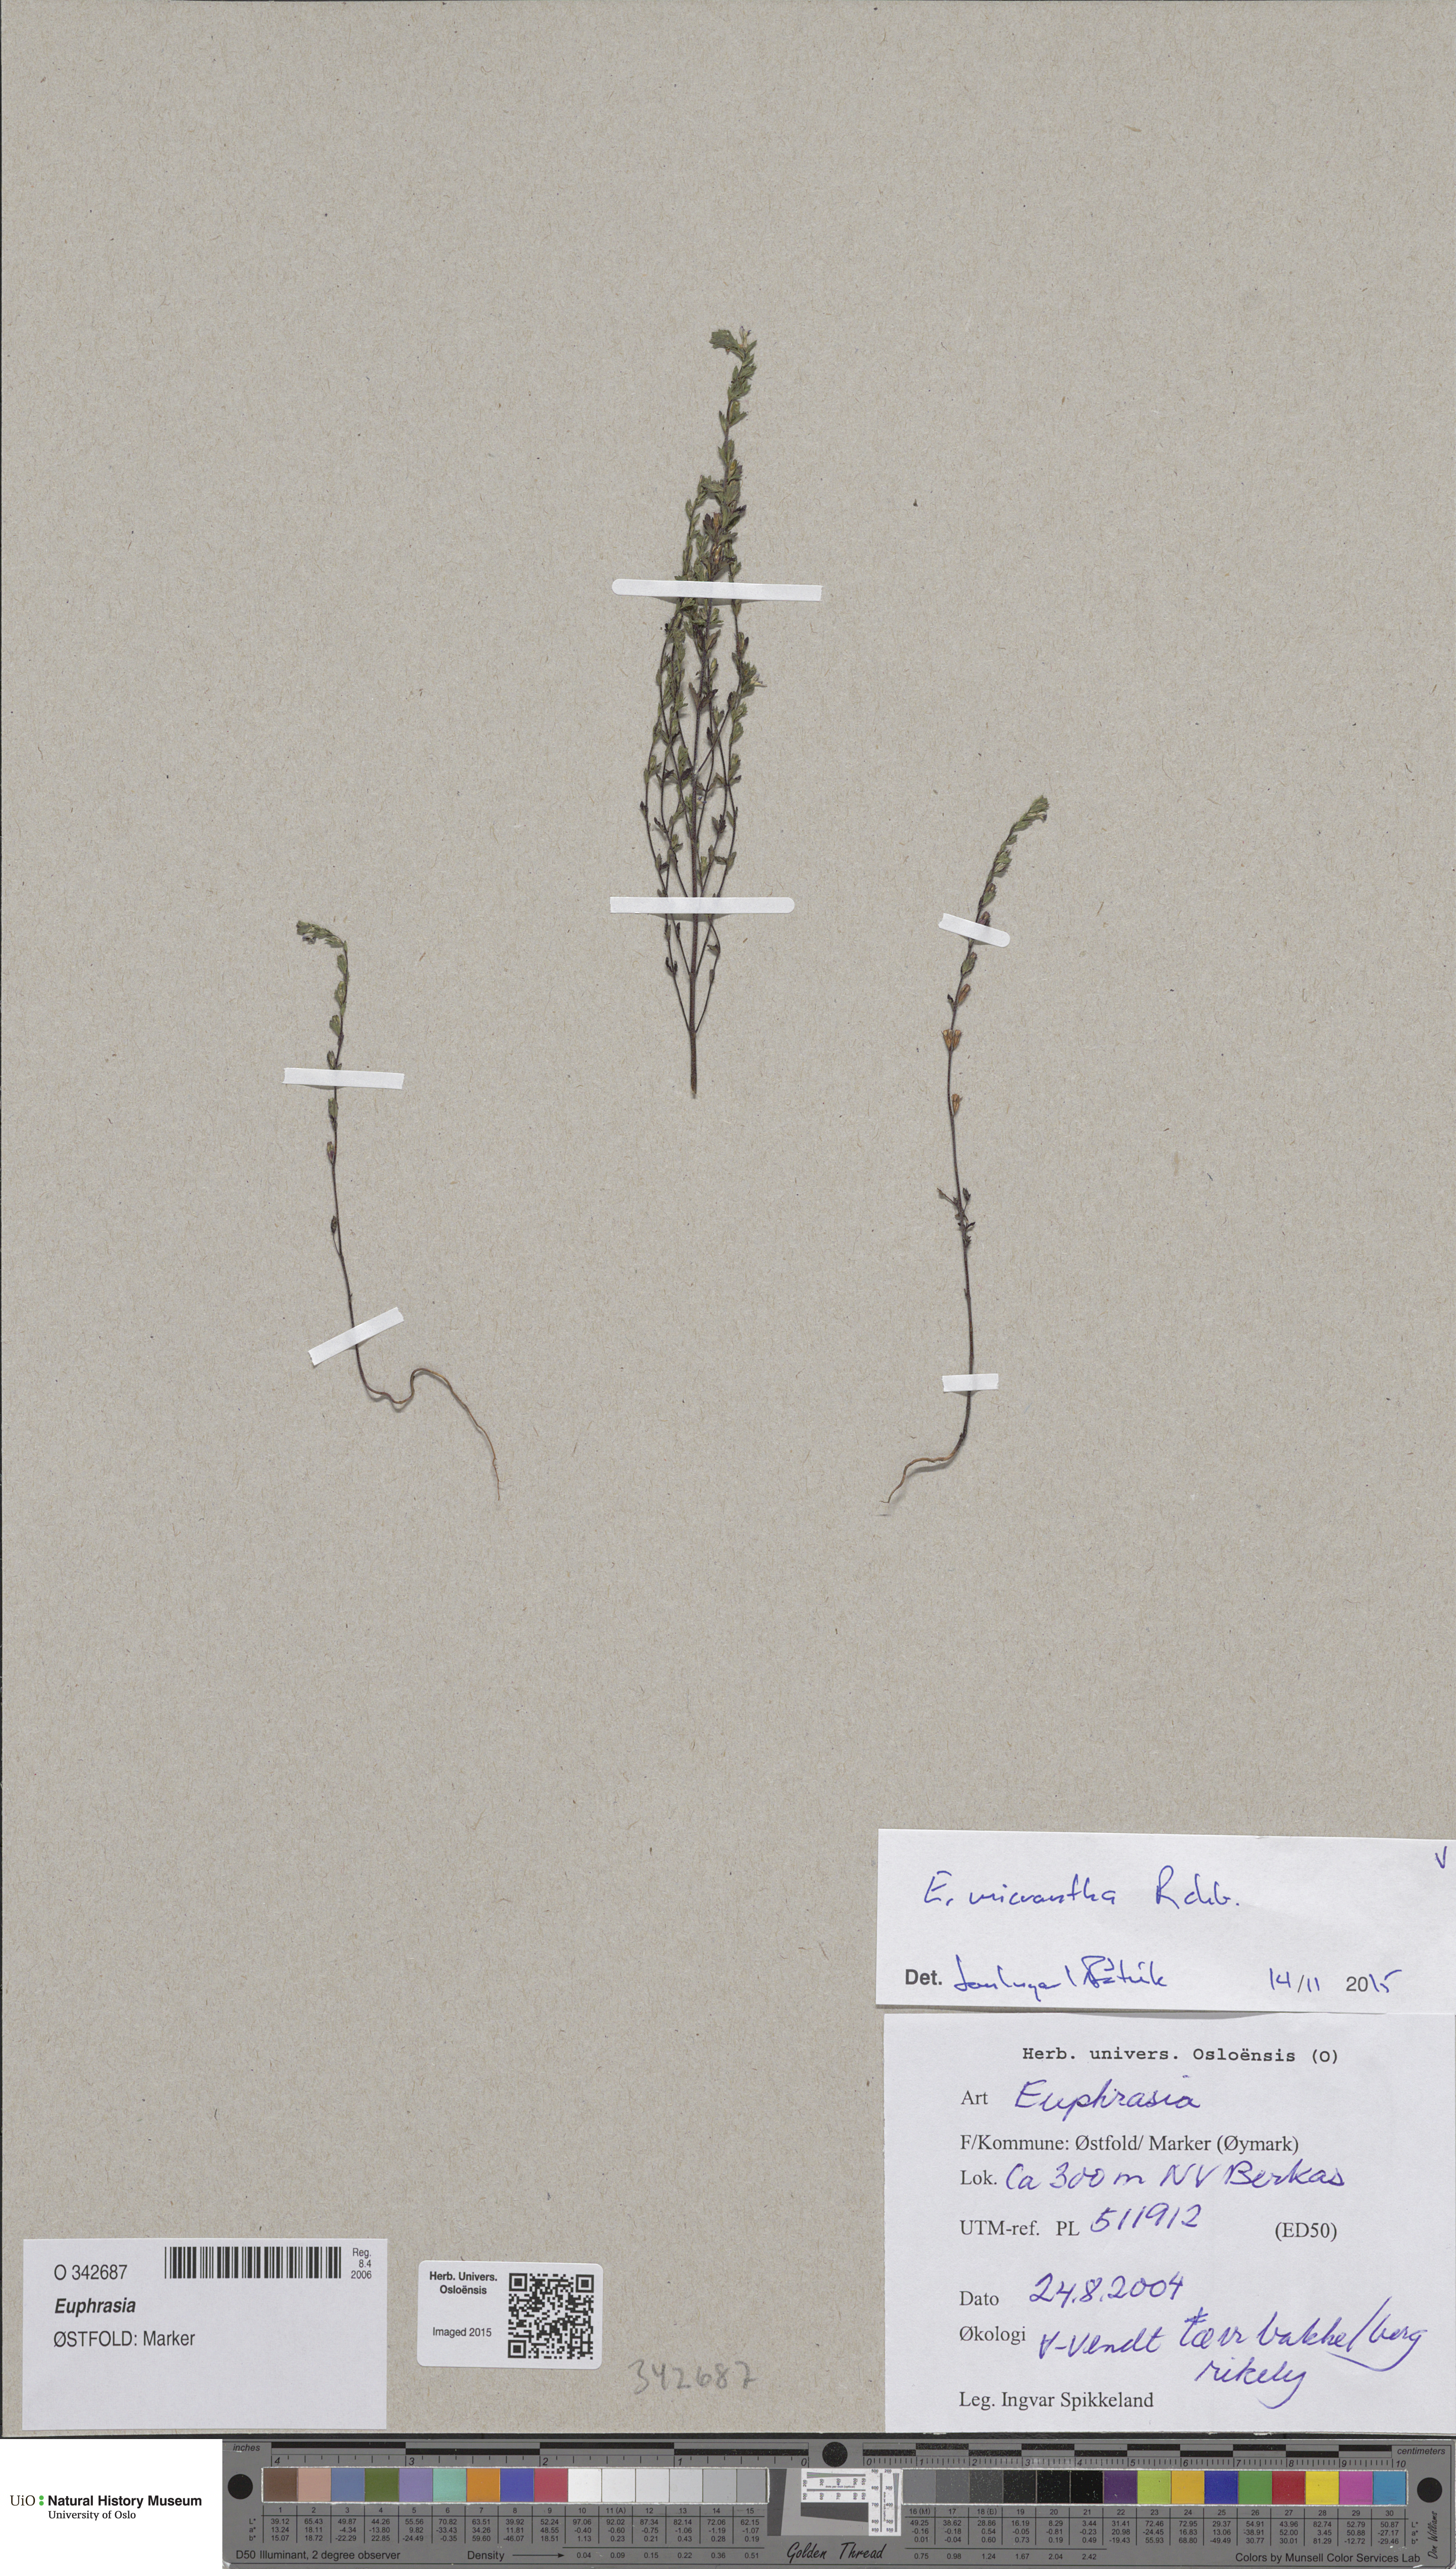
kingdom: Plantae
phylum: Tracheophyta
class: Magnoliopsida
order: Lamiales
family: Orobanchaceae
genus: Euphrasia
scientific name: Euphrasia micrantha
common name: Northern eyebright
